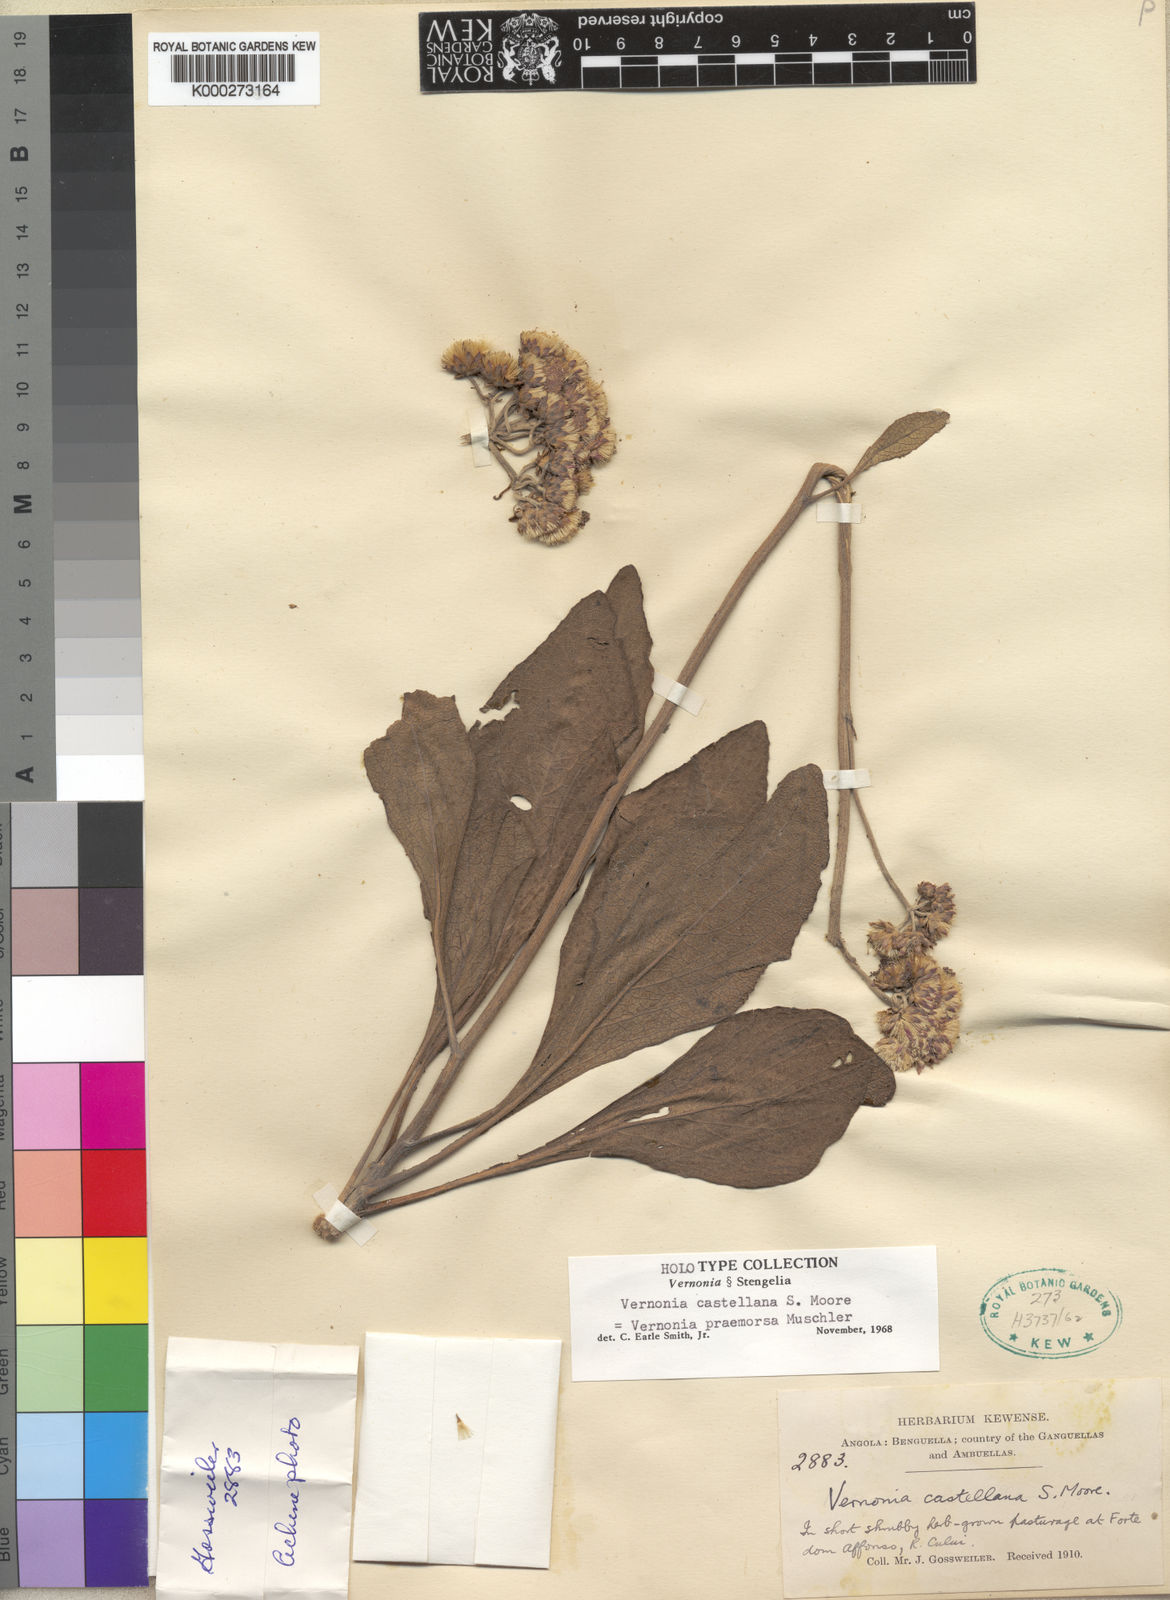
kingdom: Plantae
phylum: Tracheophyta
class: Magnoliopsida
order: Asterales
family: Asteraceae
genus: Vernonella
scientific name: Vernonella praemorsa
